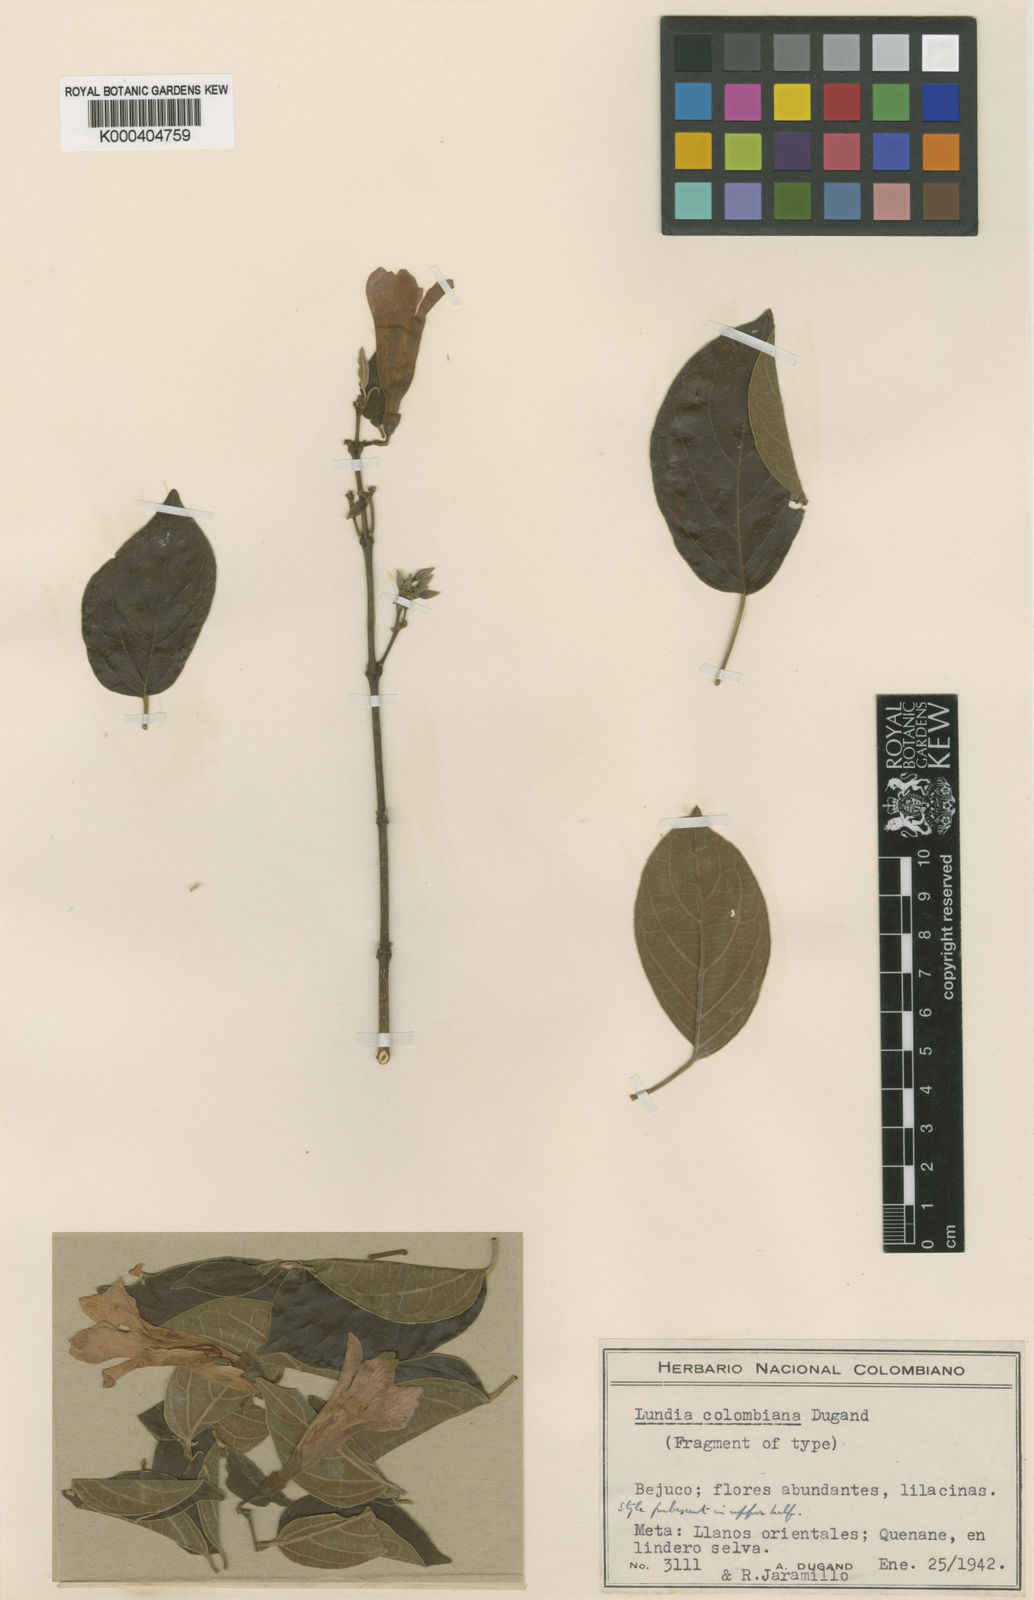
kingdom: Plantae
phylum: Tracheophyta
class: Magnoliopsida
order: Lamiales
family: Bignoniaceae
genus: Lundia
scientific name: Lundia puberula
